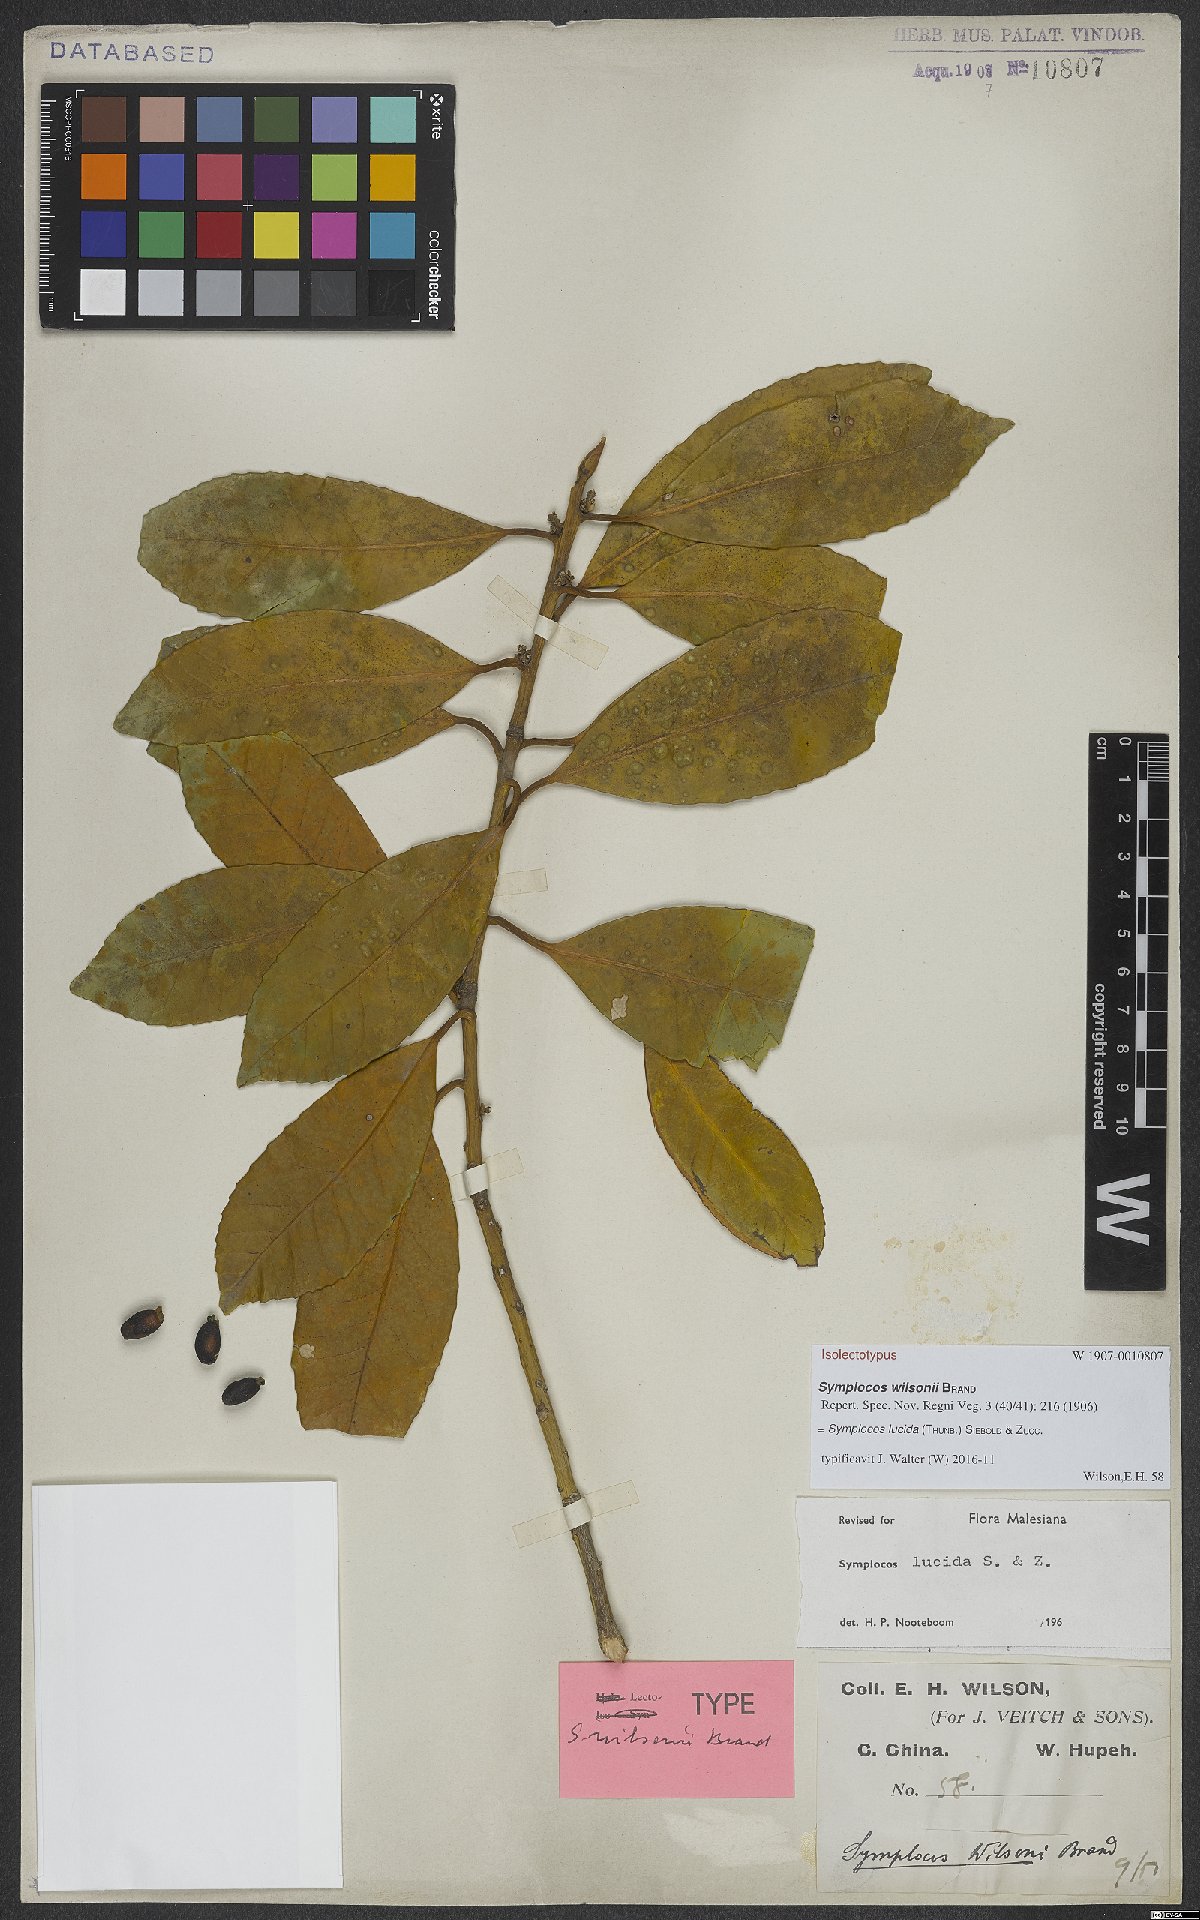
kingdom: Plantae
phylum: Tracheophyta
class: Magnoliopsida
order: Ericales
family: Symplocaceae
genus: Symplocos
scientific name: Symplocos nakaharae
